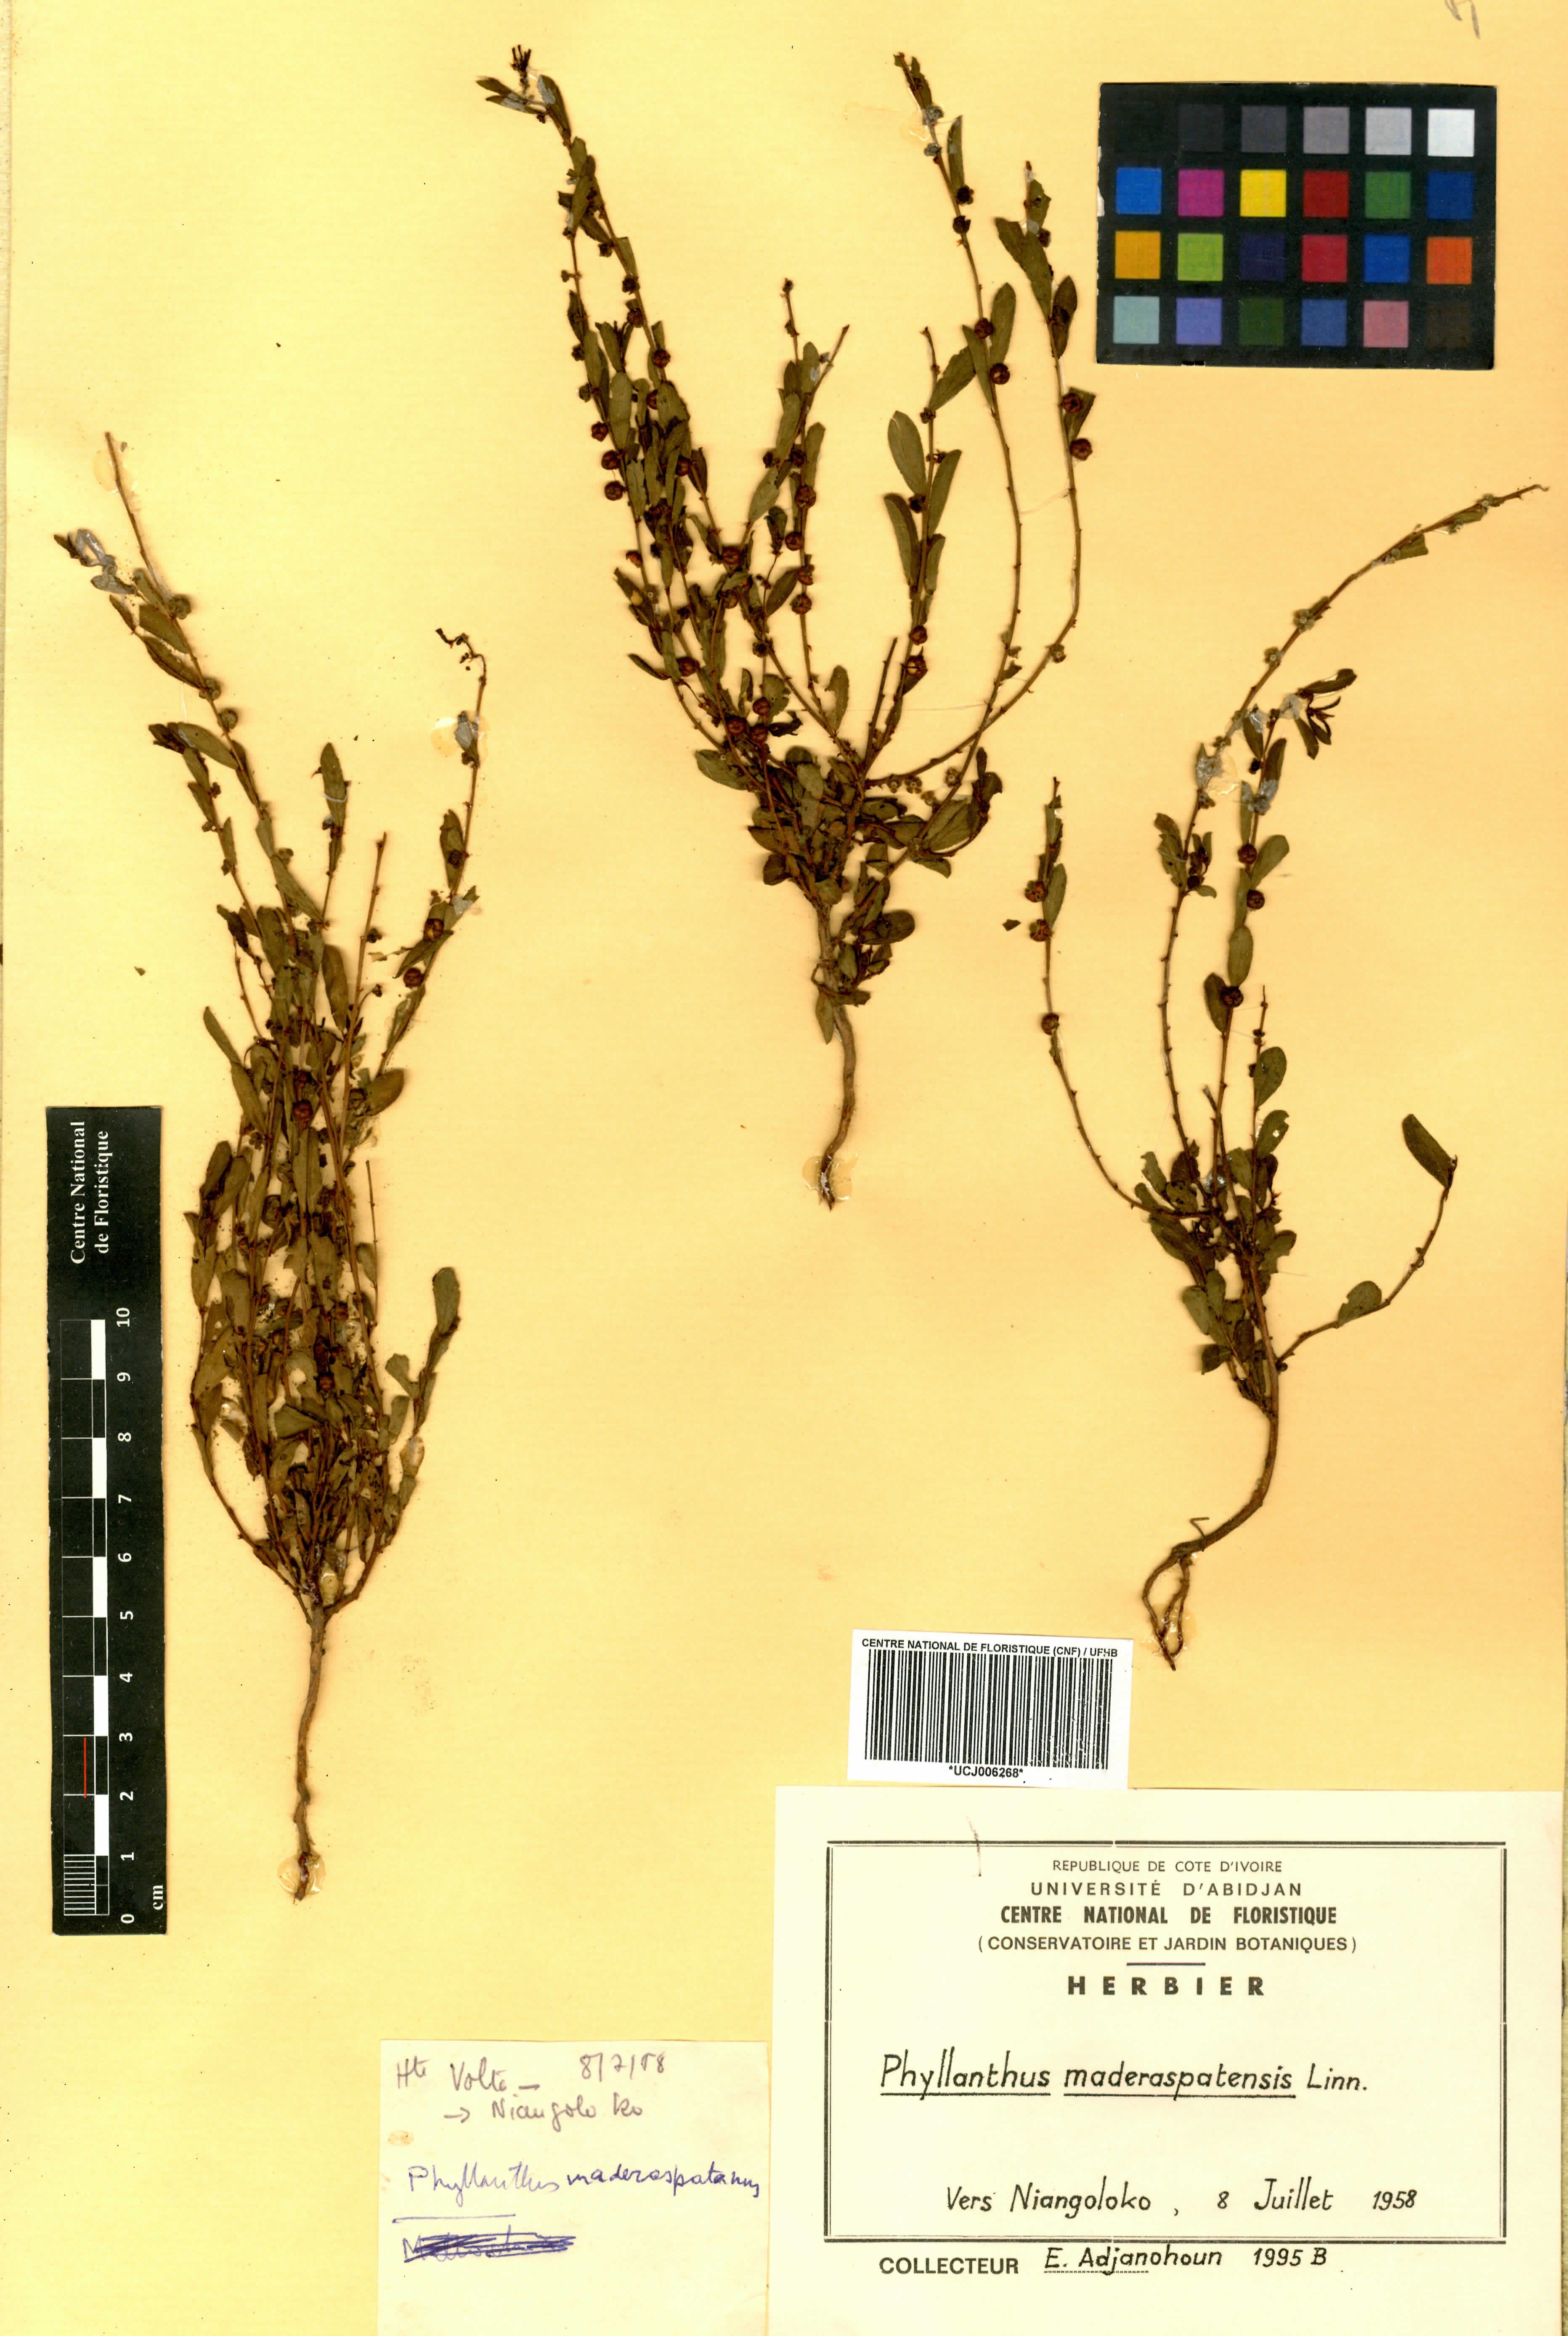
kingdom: Plantae
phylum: Tracheophyta
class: Magnoliopsida
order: Malpighiales
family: Phyllanthaceae
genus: Phyllanthus
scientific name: Phyllanthus maderaspatensis
